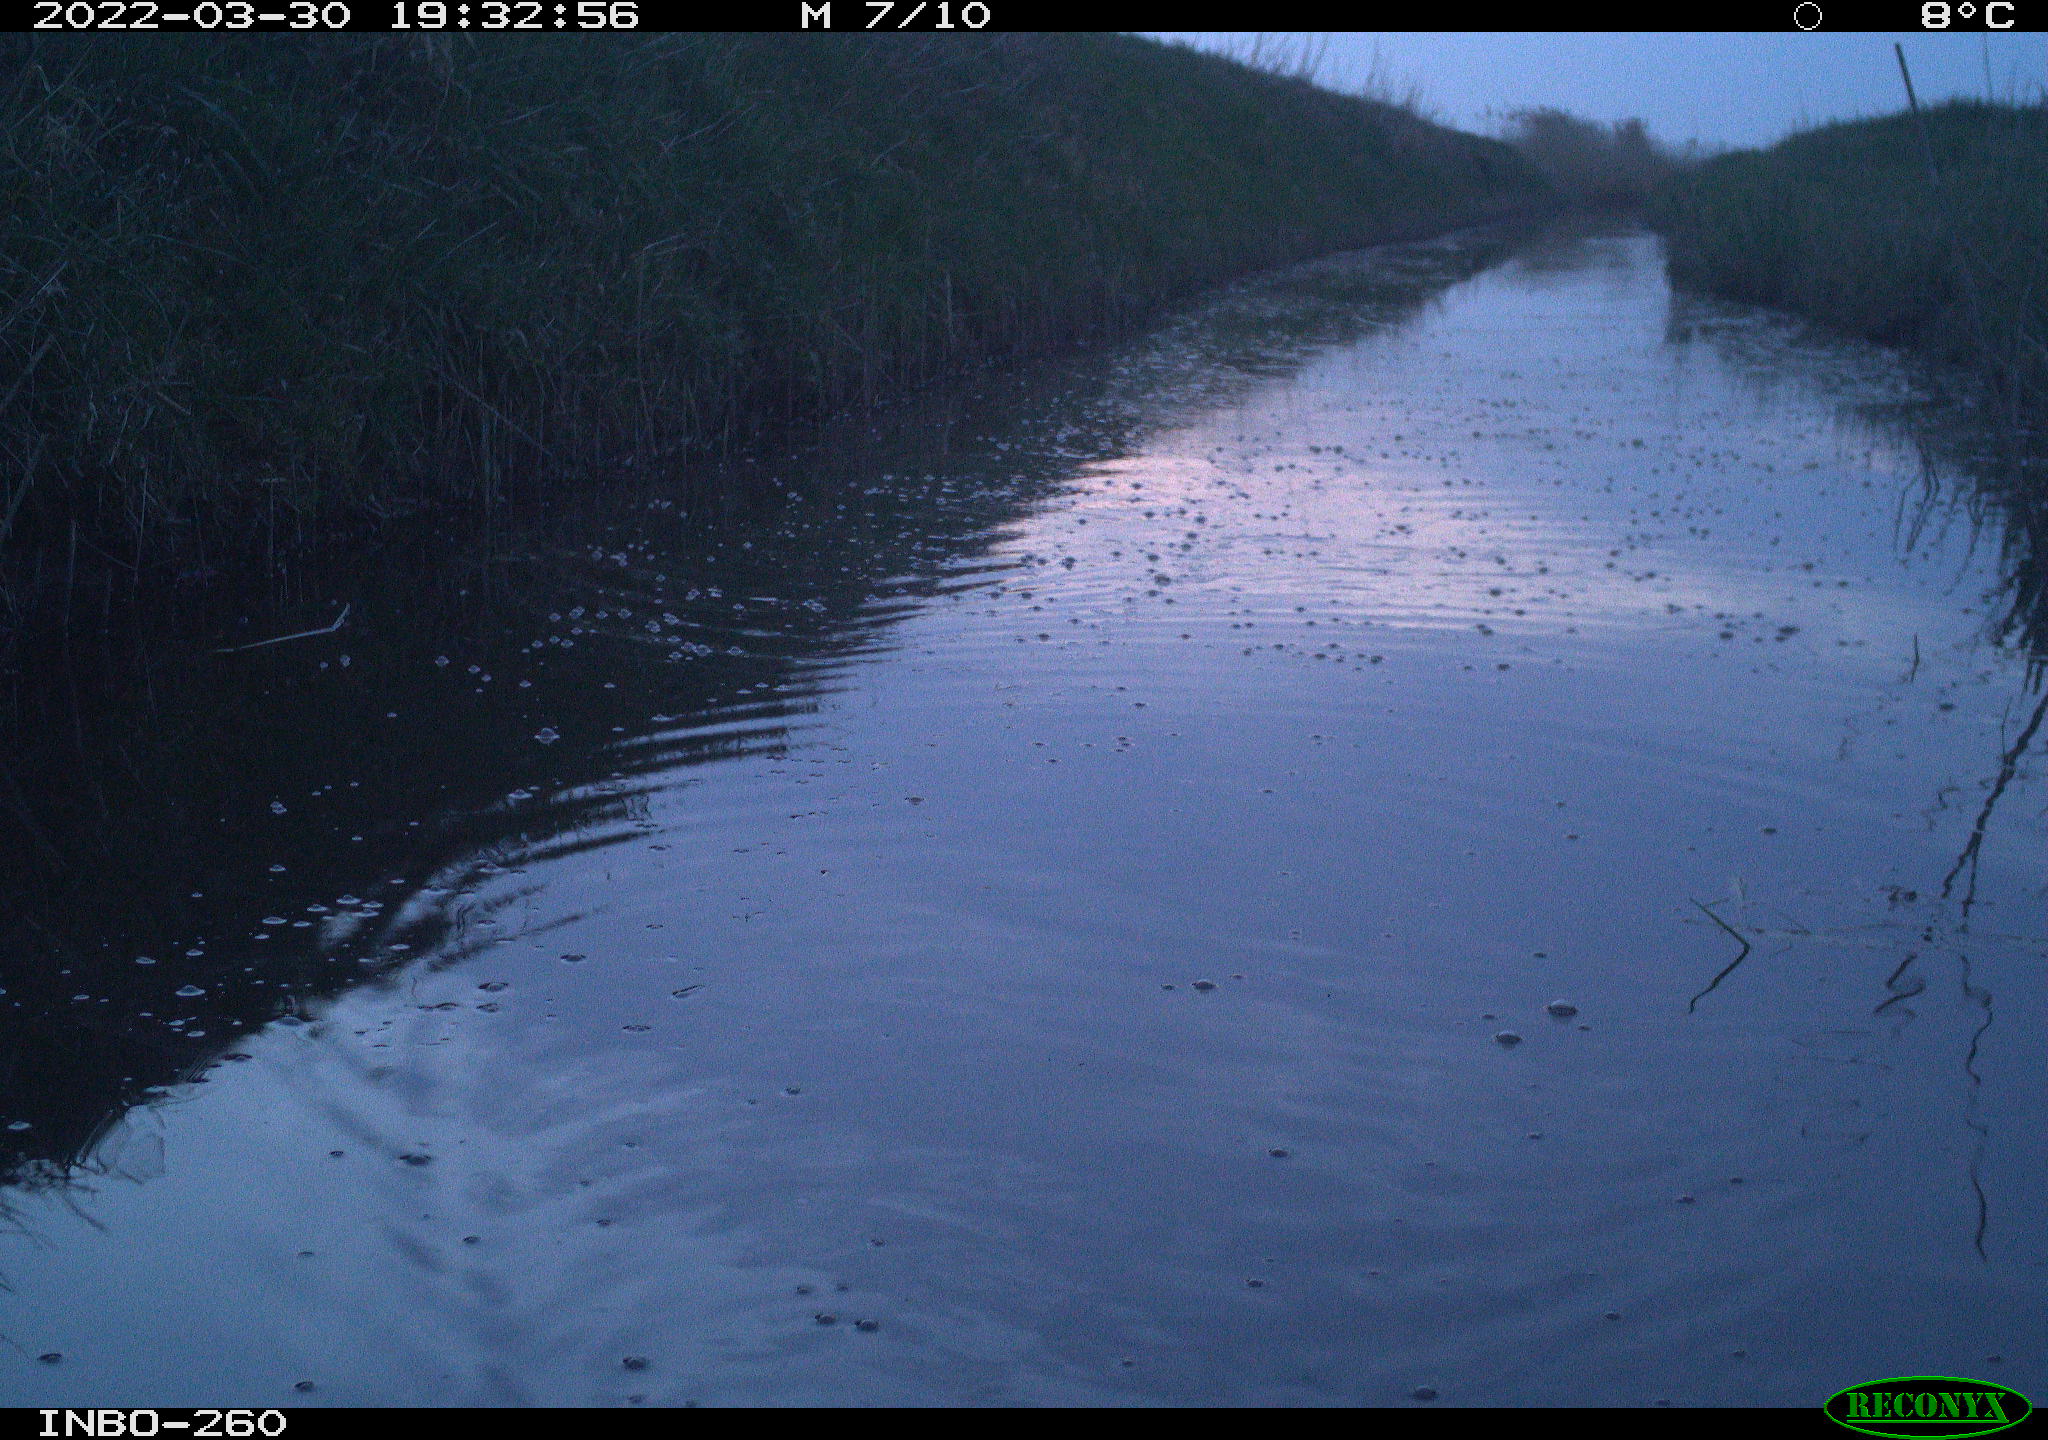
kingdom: Animalia
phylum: Chordata
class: Mammalia
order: Rodentia
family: Cricetidae
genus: Ondatra
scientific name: Ondatra zibethicus
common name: Muskrat
